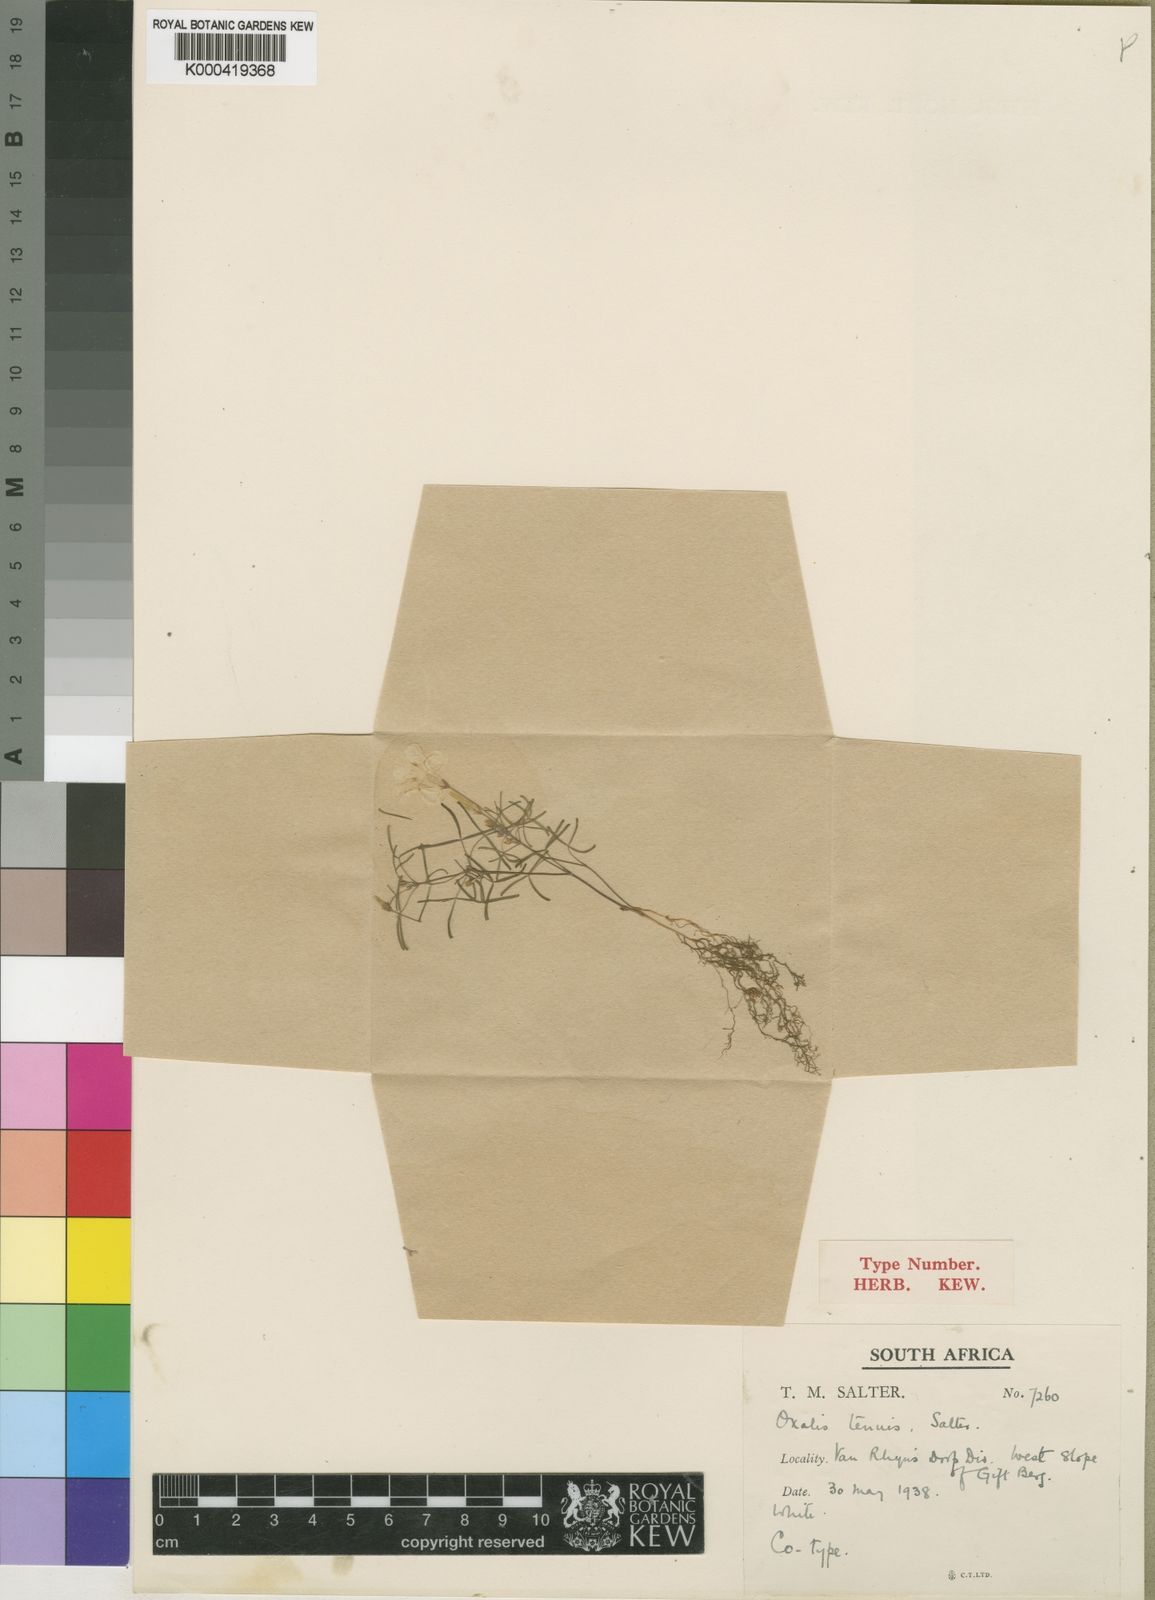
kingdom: Plantae
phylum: Tracheophyta
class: Magnoliopsida
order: Oxalidales
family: Oxalidaceae
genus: Oxalis
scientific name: Oxalis tenuis
